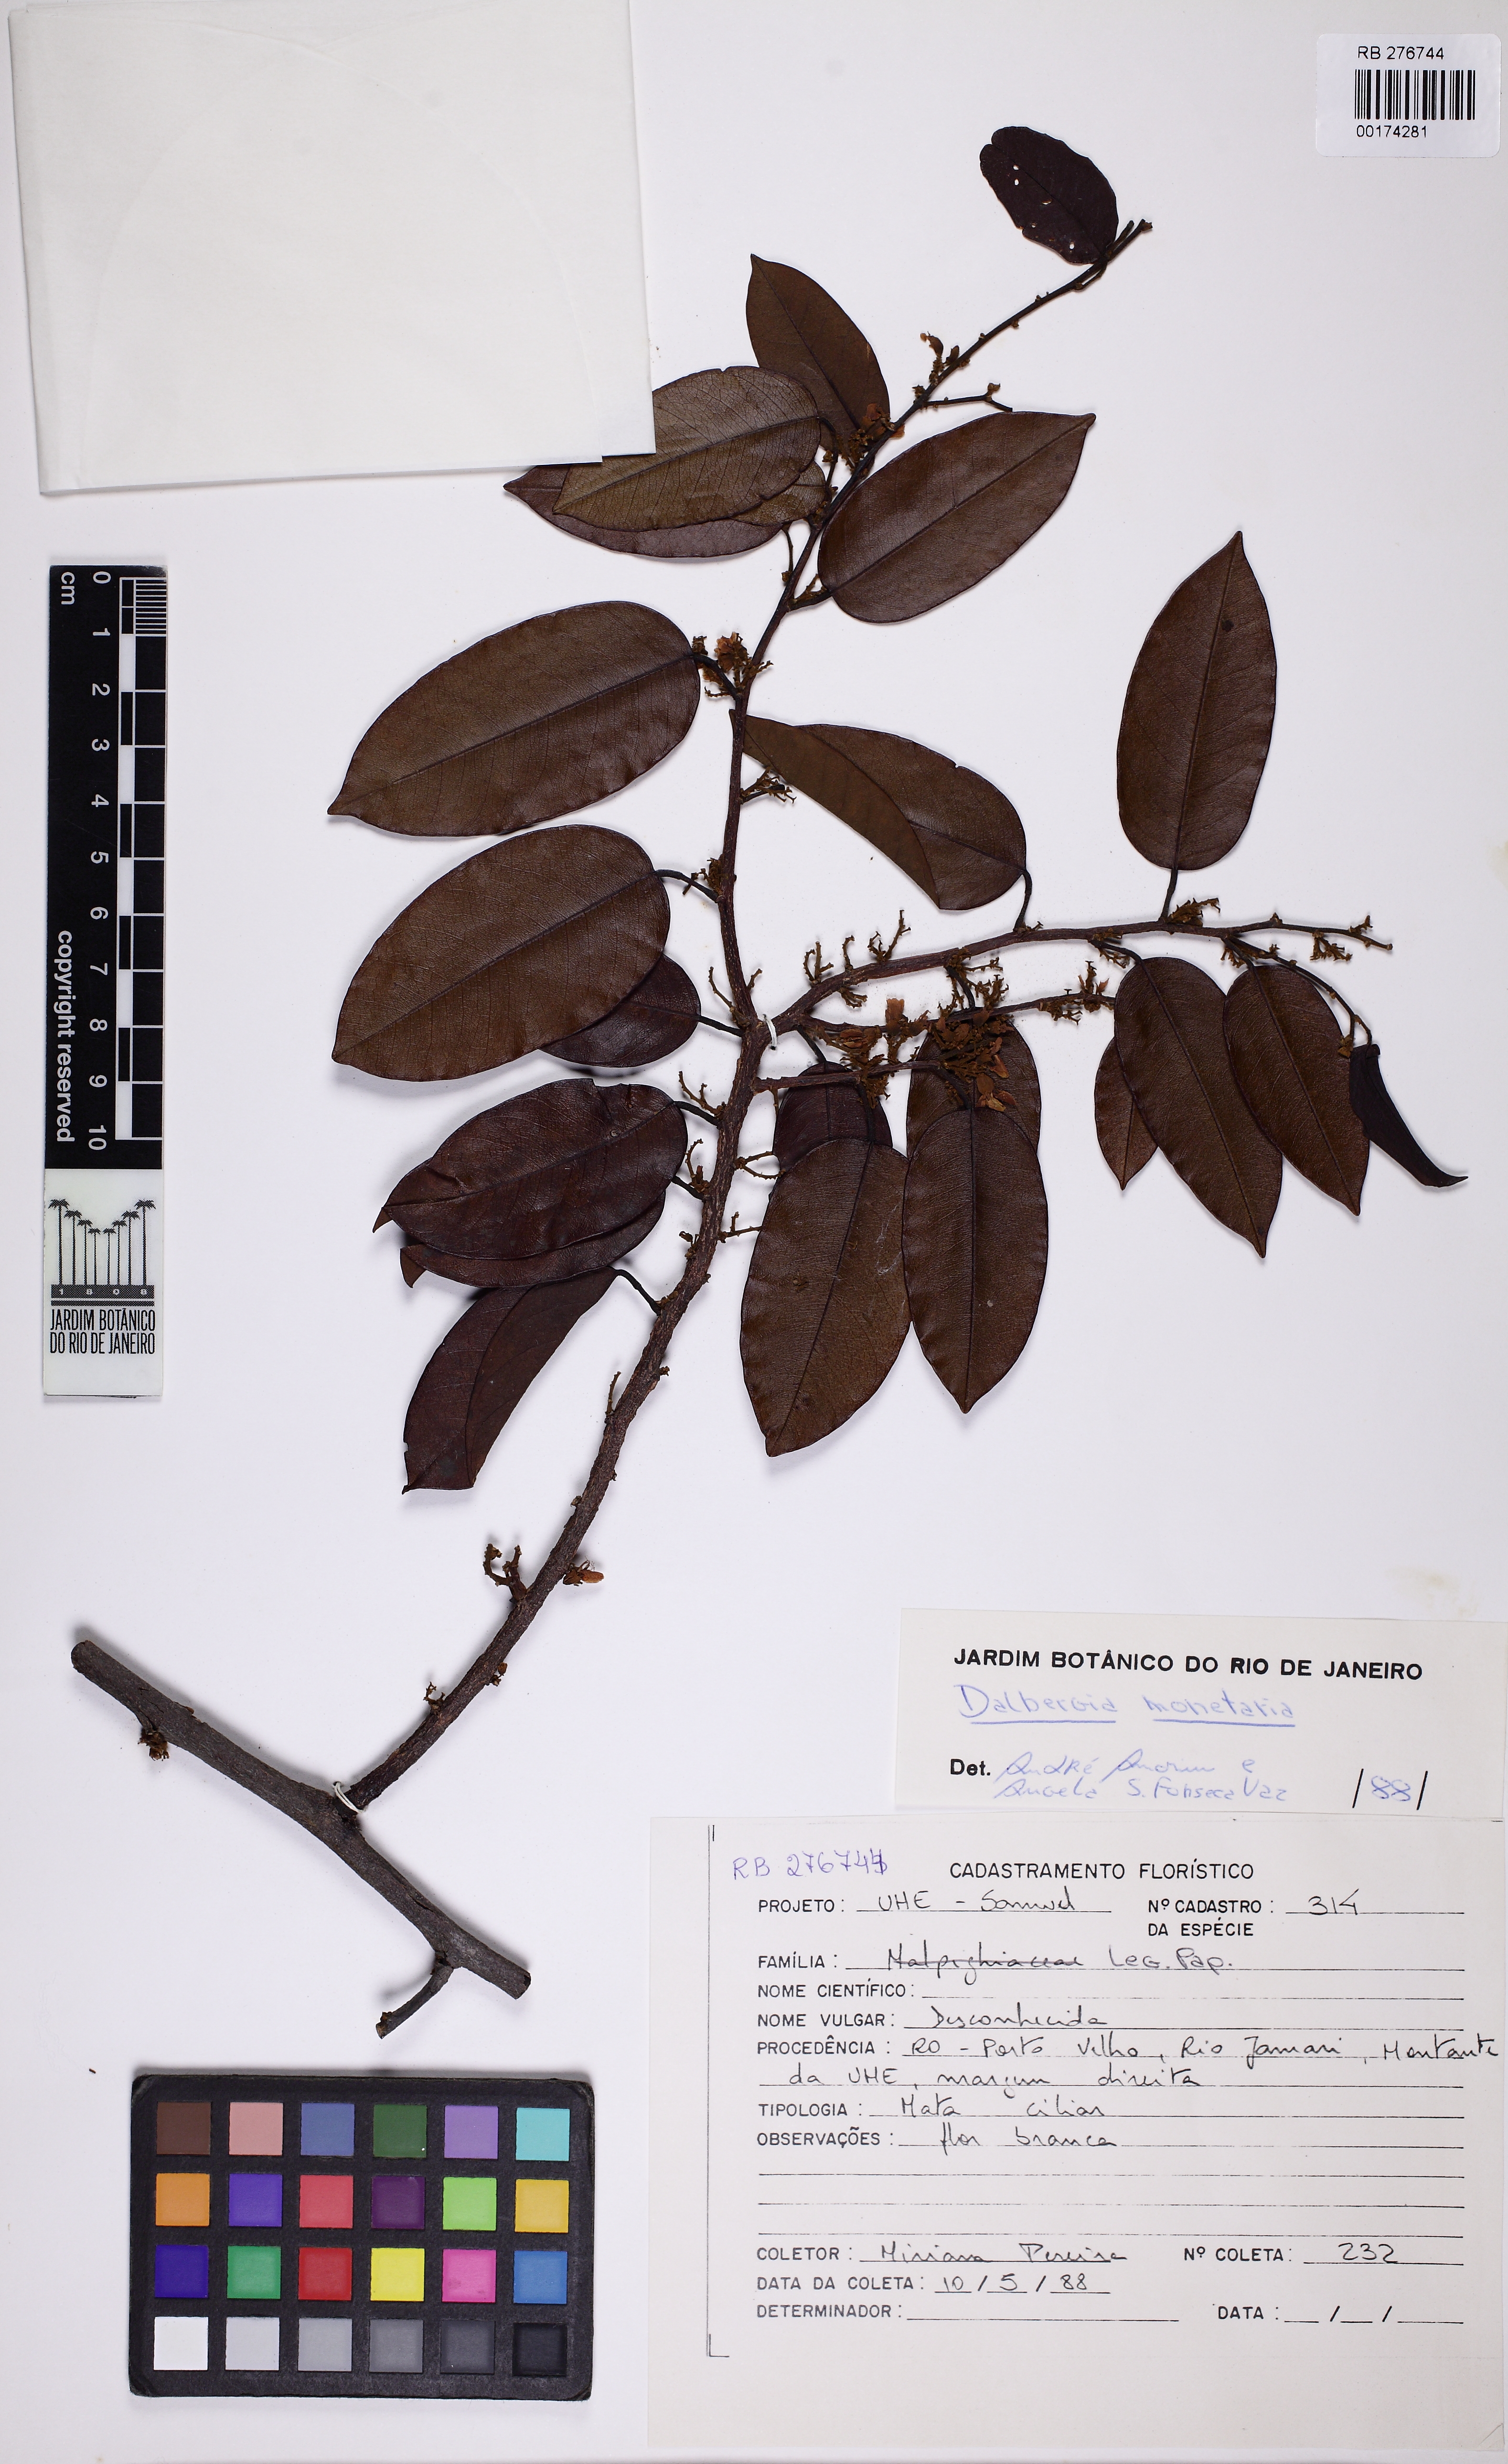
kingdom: Plantae
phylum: Tracheophyta
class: Magnoliopsida
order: Fabales
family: Fabaceae
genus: Dalbergia
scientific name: Dalbergia
